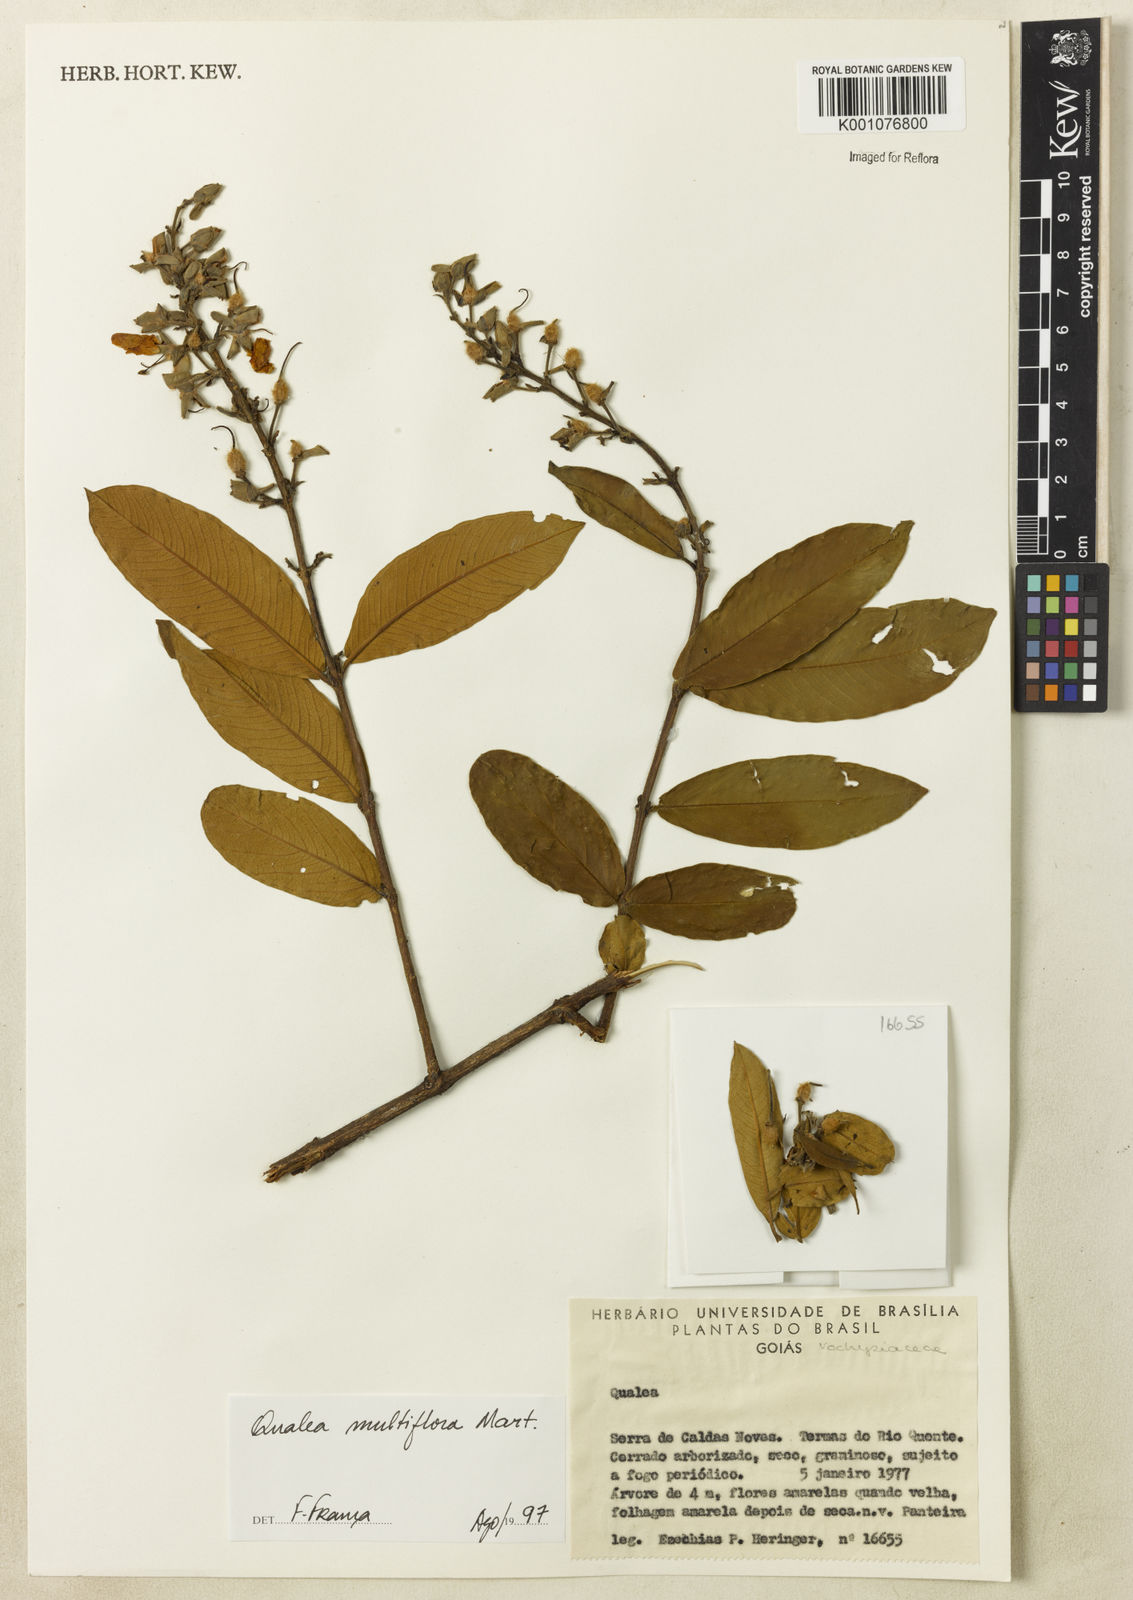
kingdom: Plantae
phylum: Tracheophyta
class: Magnoliopsida
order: Myrtales
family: Vochysiaceae
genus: Qualea
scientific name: Qualea multiflora
